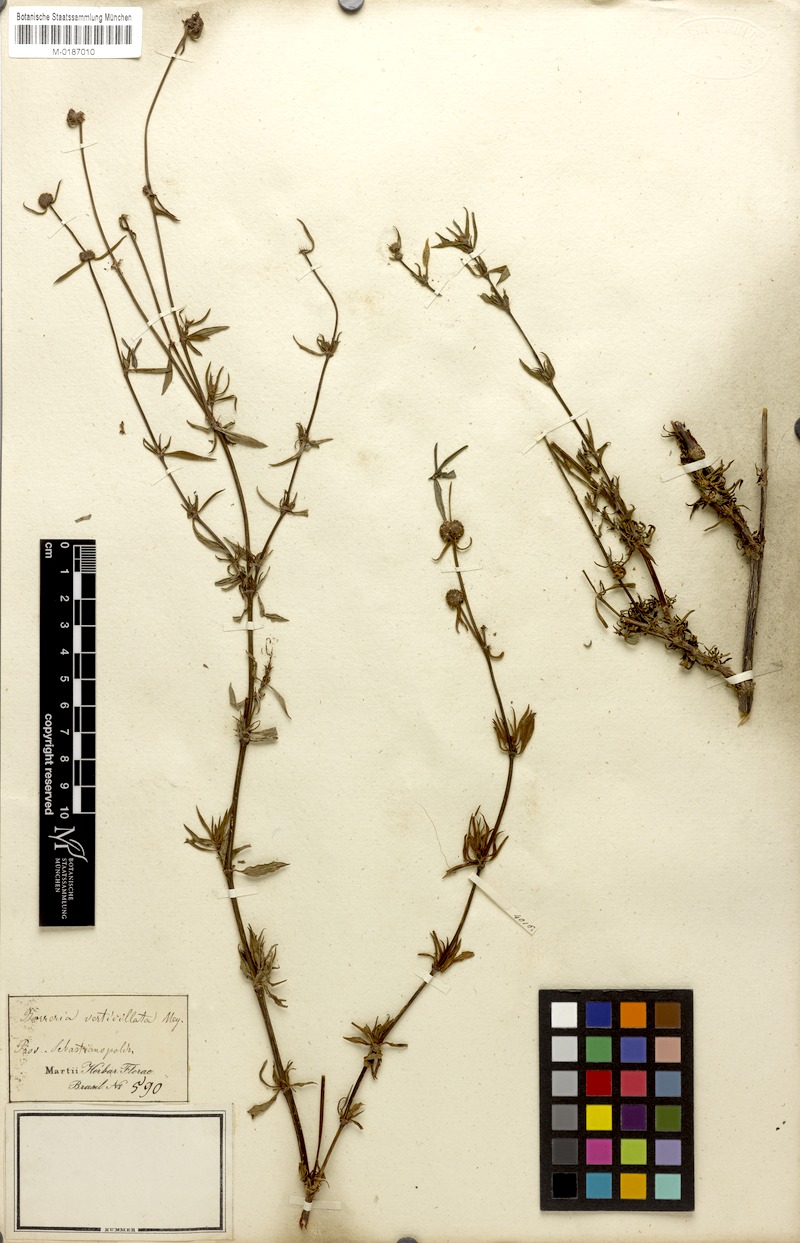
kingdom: Plantae
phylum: Tracheophyta
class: Magnoliopsida
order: Gentianales
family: Rubiaceae
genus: Spermacoce
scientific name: Spermacoce verticillata
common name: Shrubby false buttonweed
